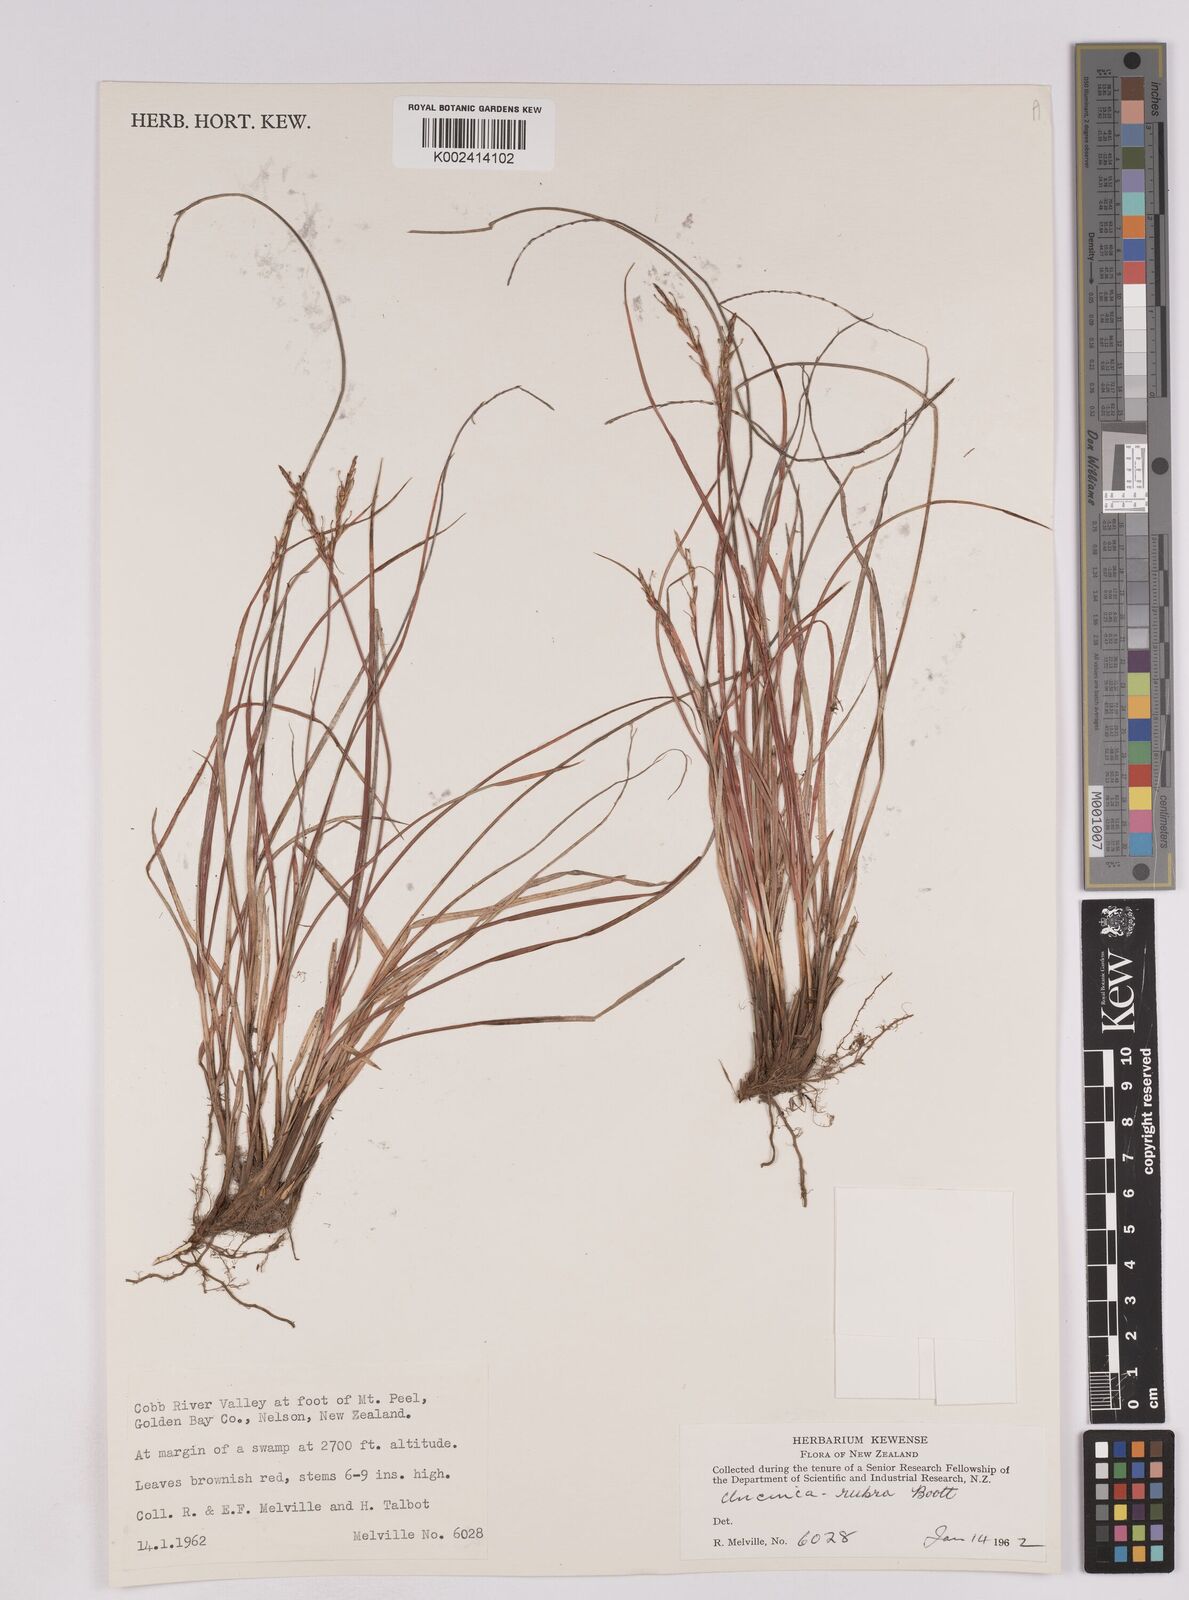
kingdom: Plantae
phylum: Tracheophyta
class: Liliopsida
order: Poales
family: Cyperaceae
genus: Carex
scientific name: Carex punicea
